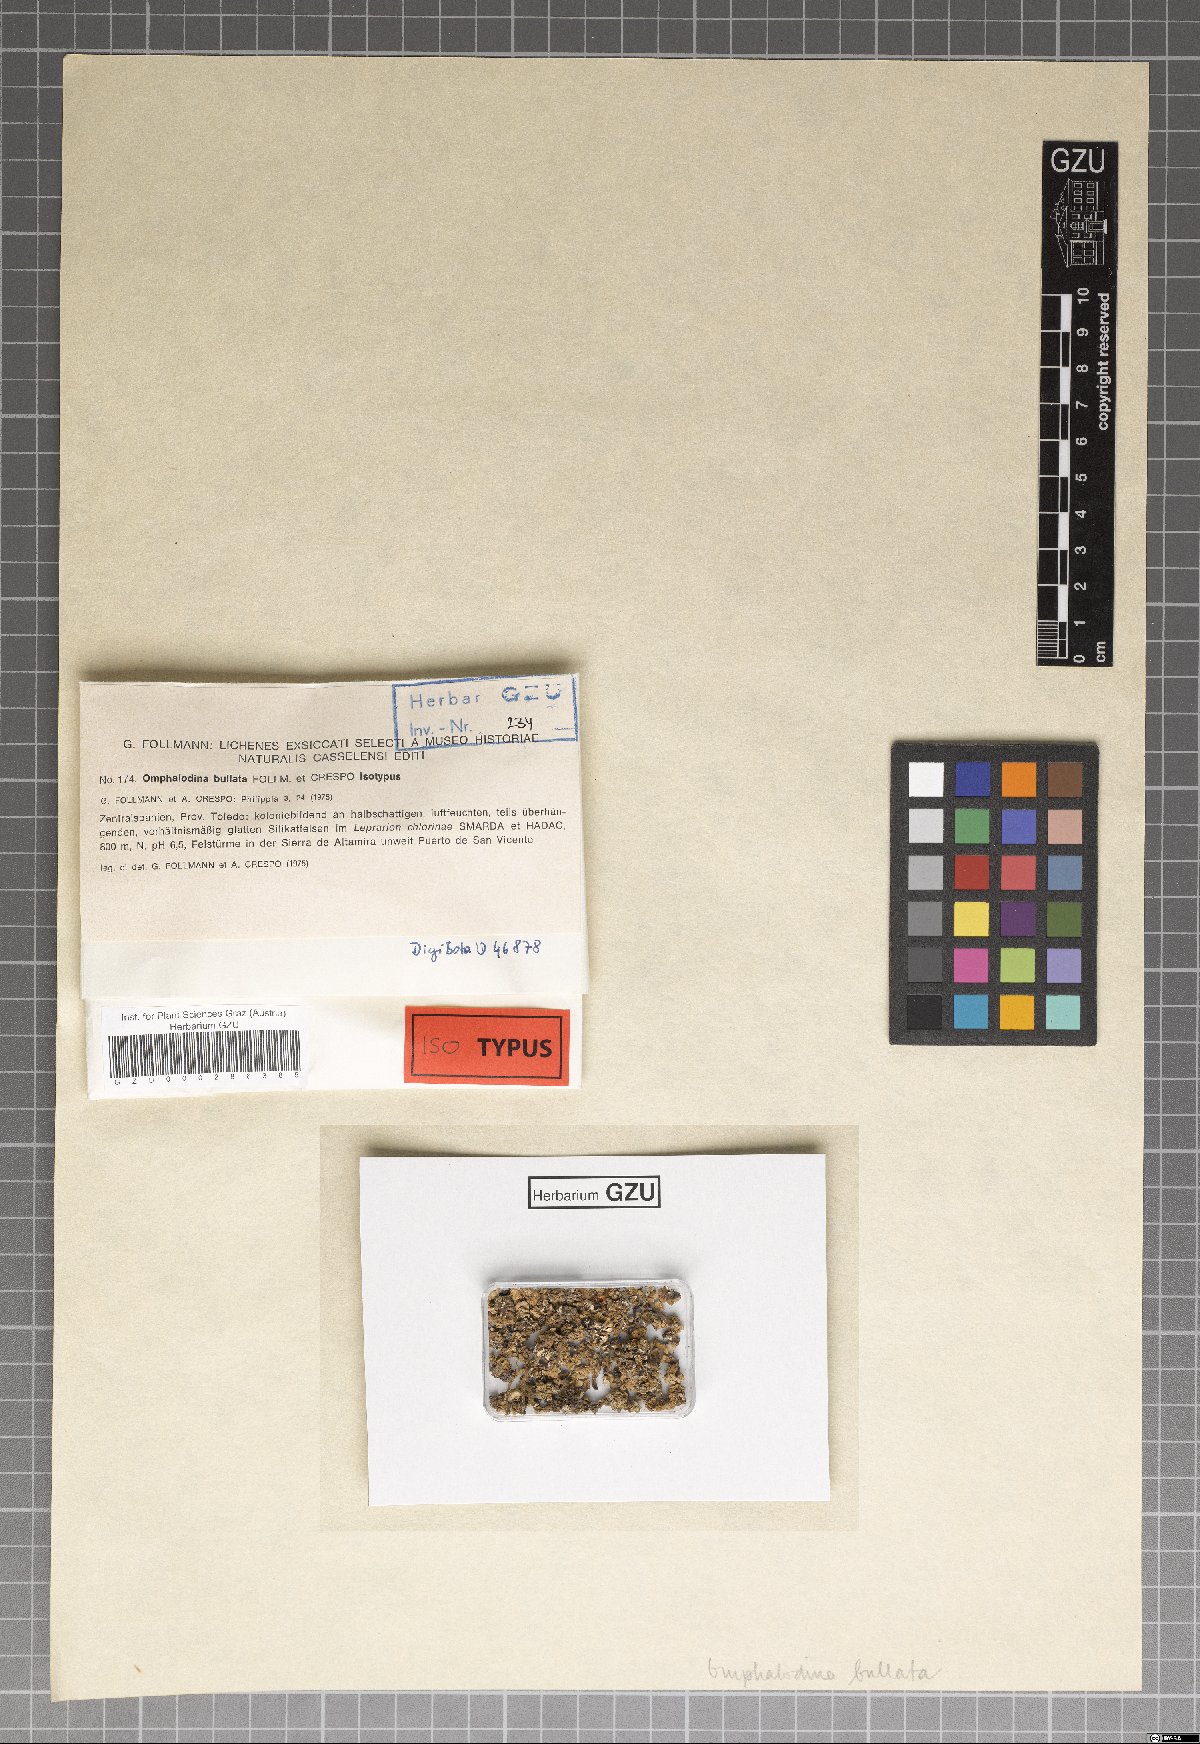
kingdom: Fungi
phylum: Ascomycota
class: Lecanoromycetes
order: Lecanorales
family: Lecanoraceae
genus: Straminella
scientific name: Straminella bullata
